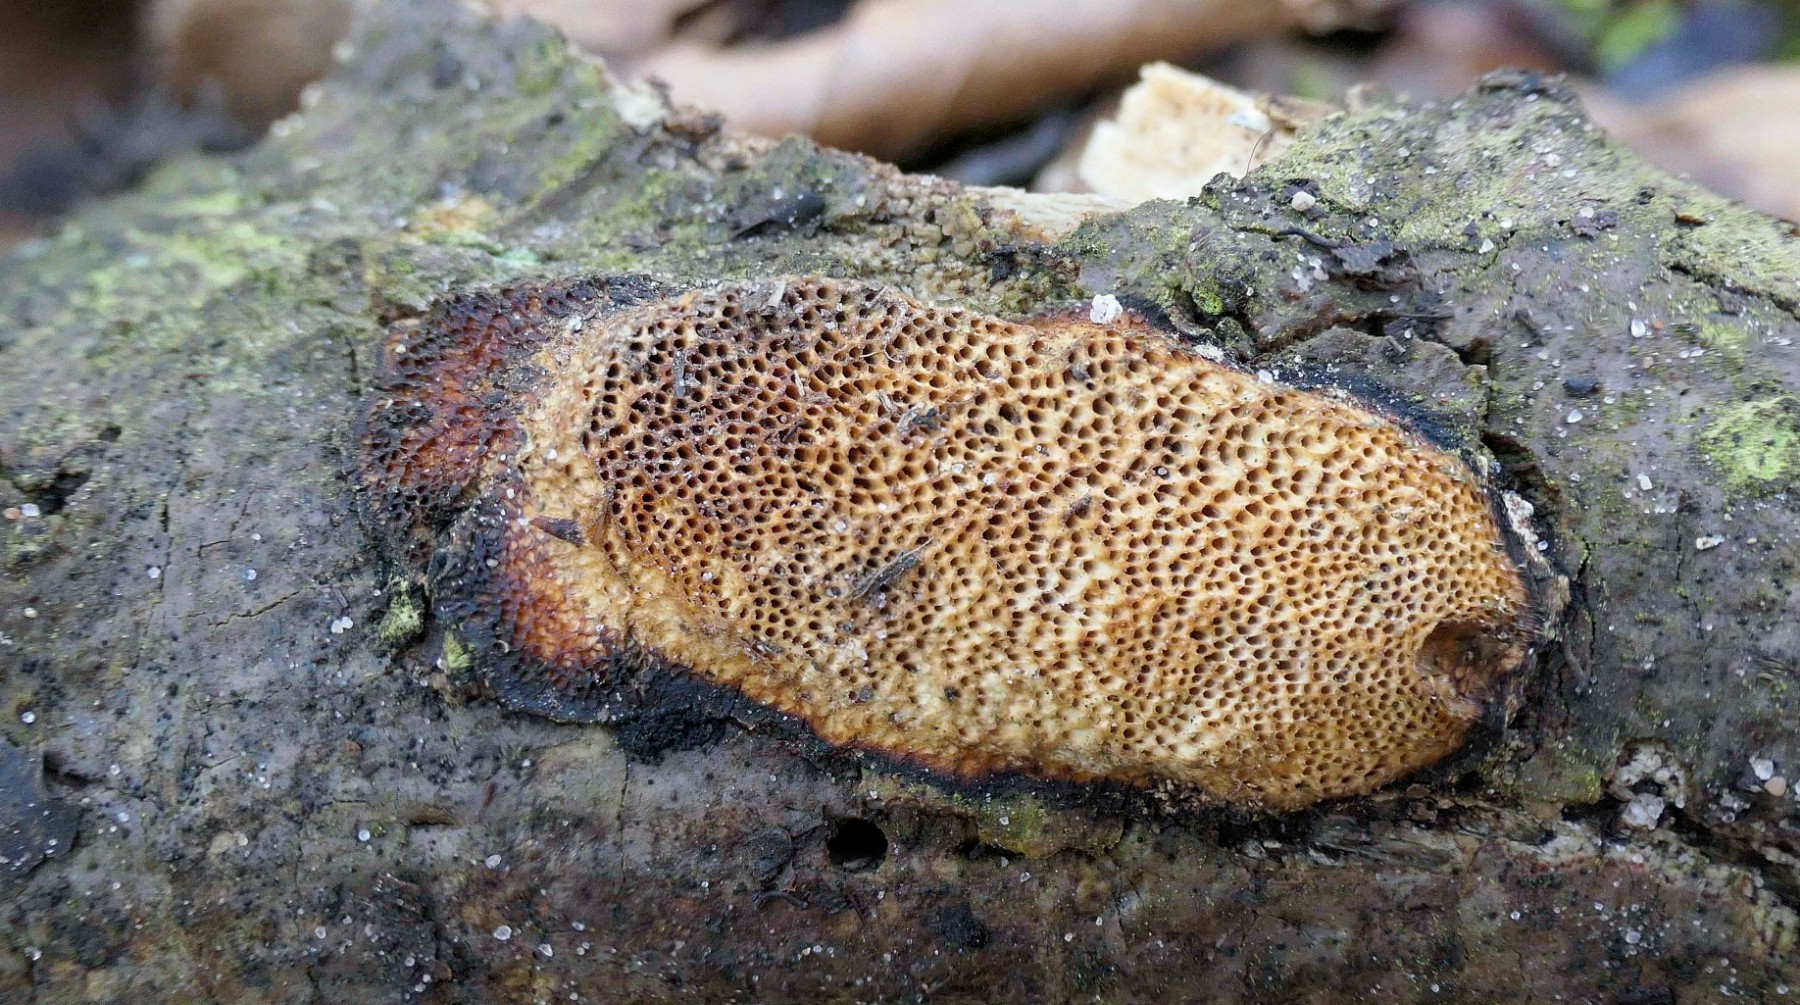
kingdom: Fungi
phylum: Basidiomycota
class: Agaricomycetes
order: Polyporales
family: Polyporaceae
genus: Szczepkamyces
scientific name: Szczepkamyces campestris
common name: hasselporesvamp
